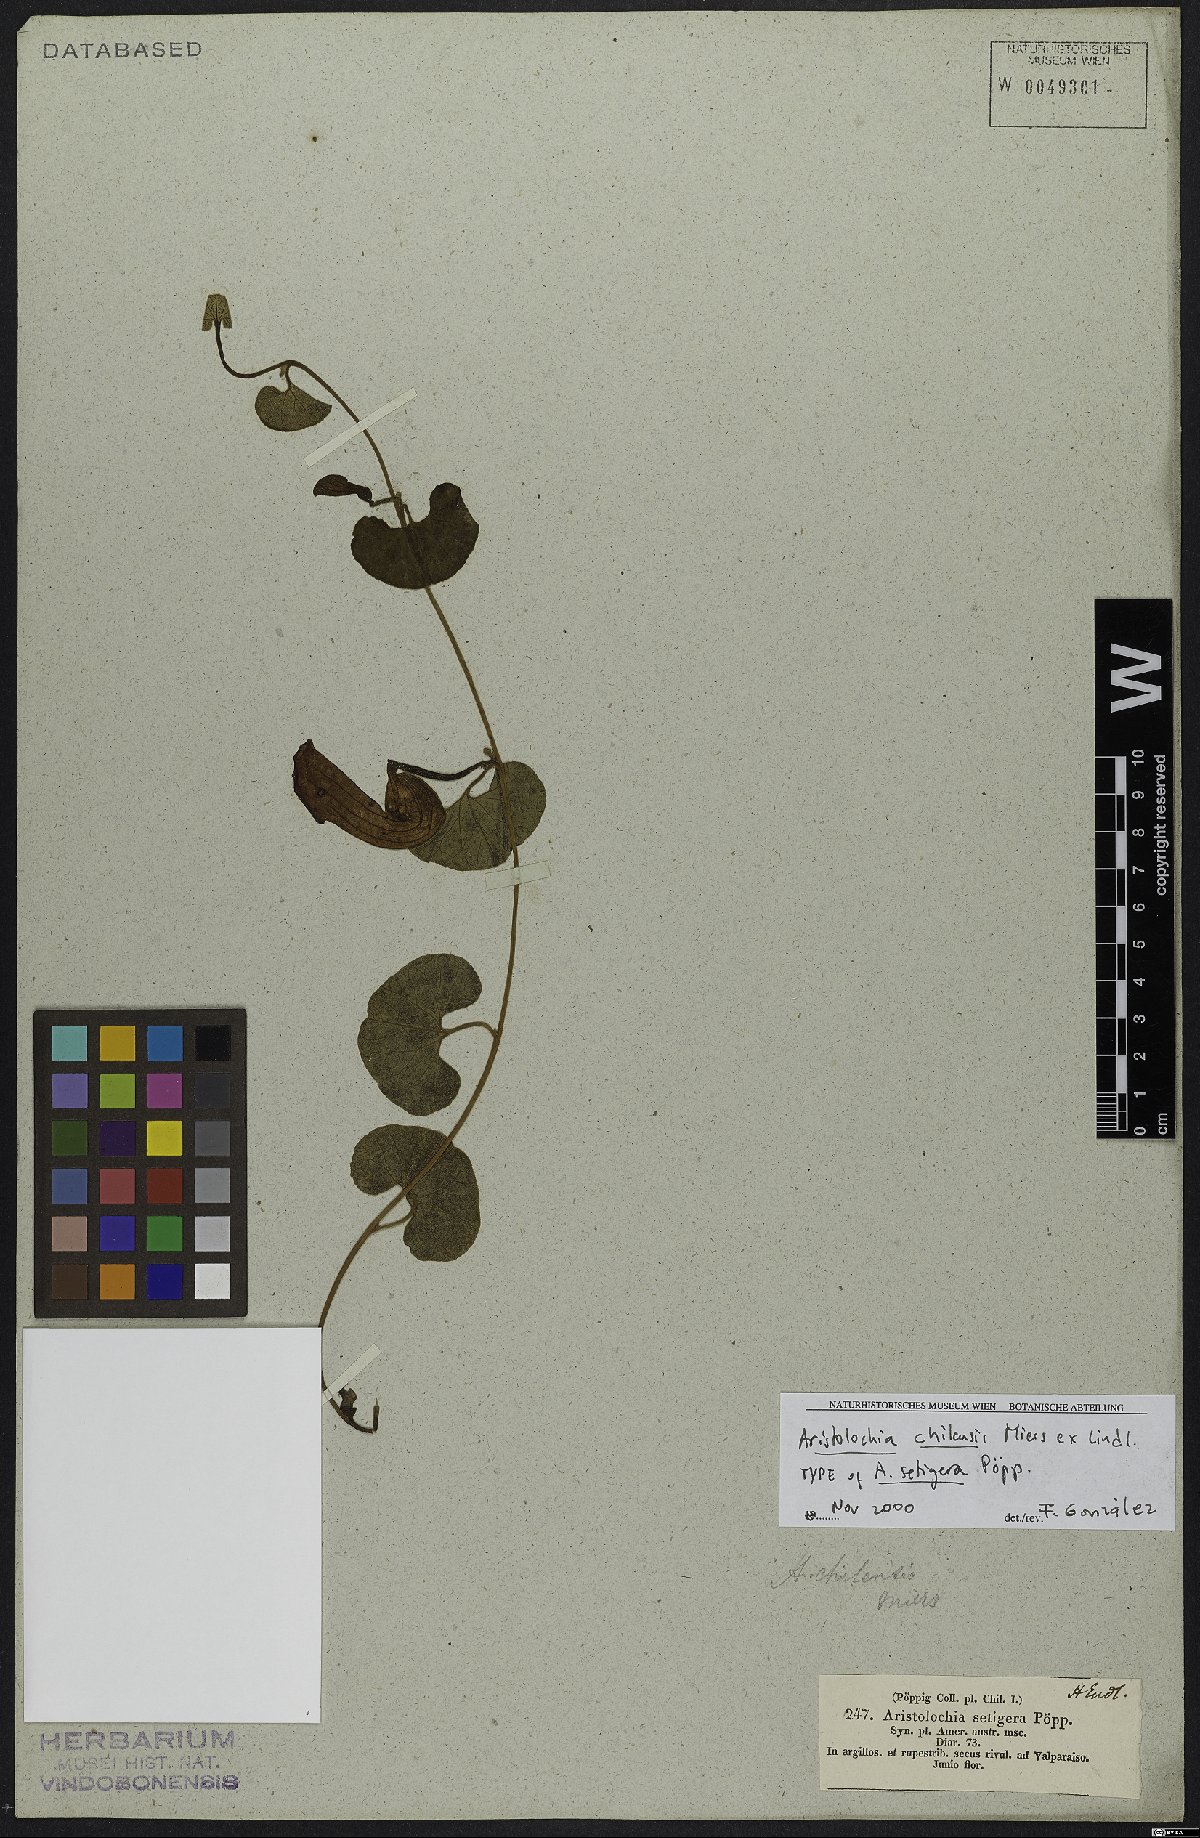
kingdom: Plantae
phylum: Tracheophyta
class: Magnoliopsida
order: Piperales
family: Aristolochiaceae
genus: Aristolochia
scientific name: Aristolochia chilensis
